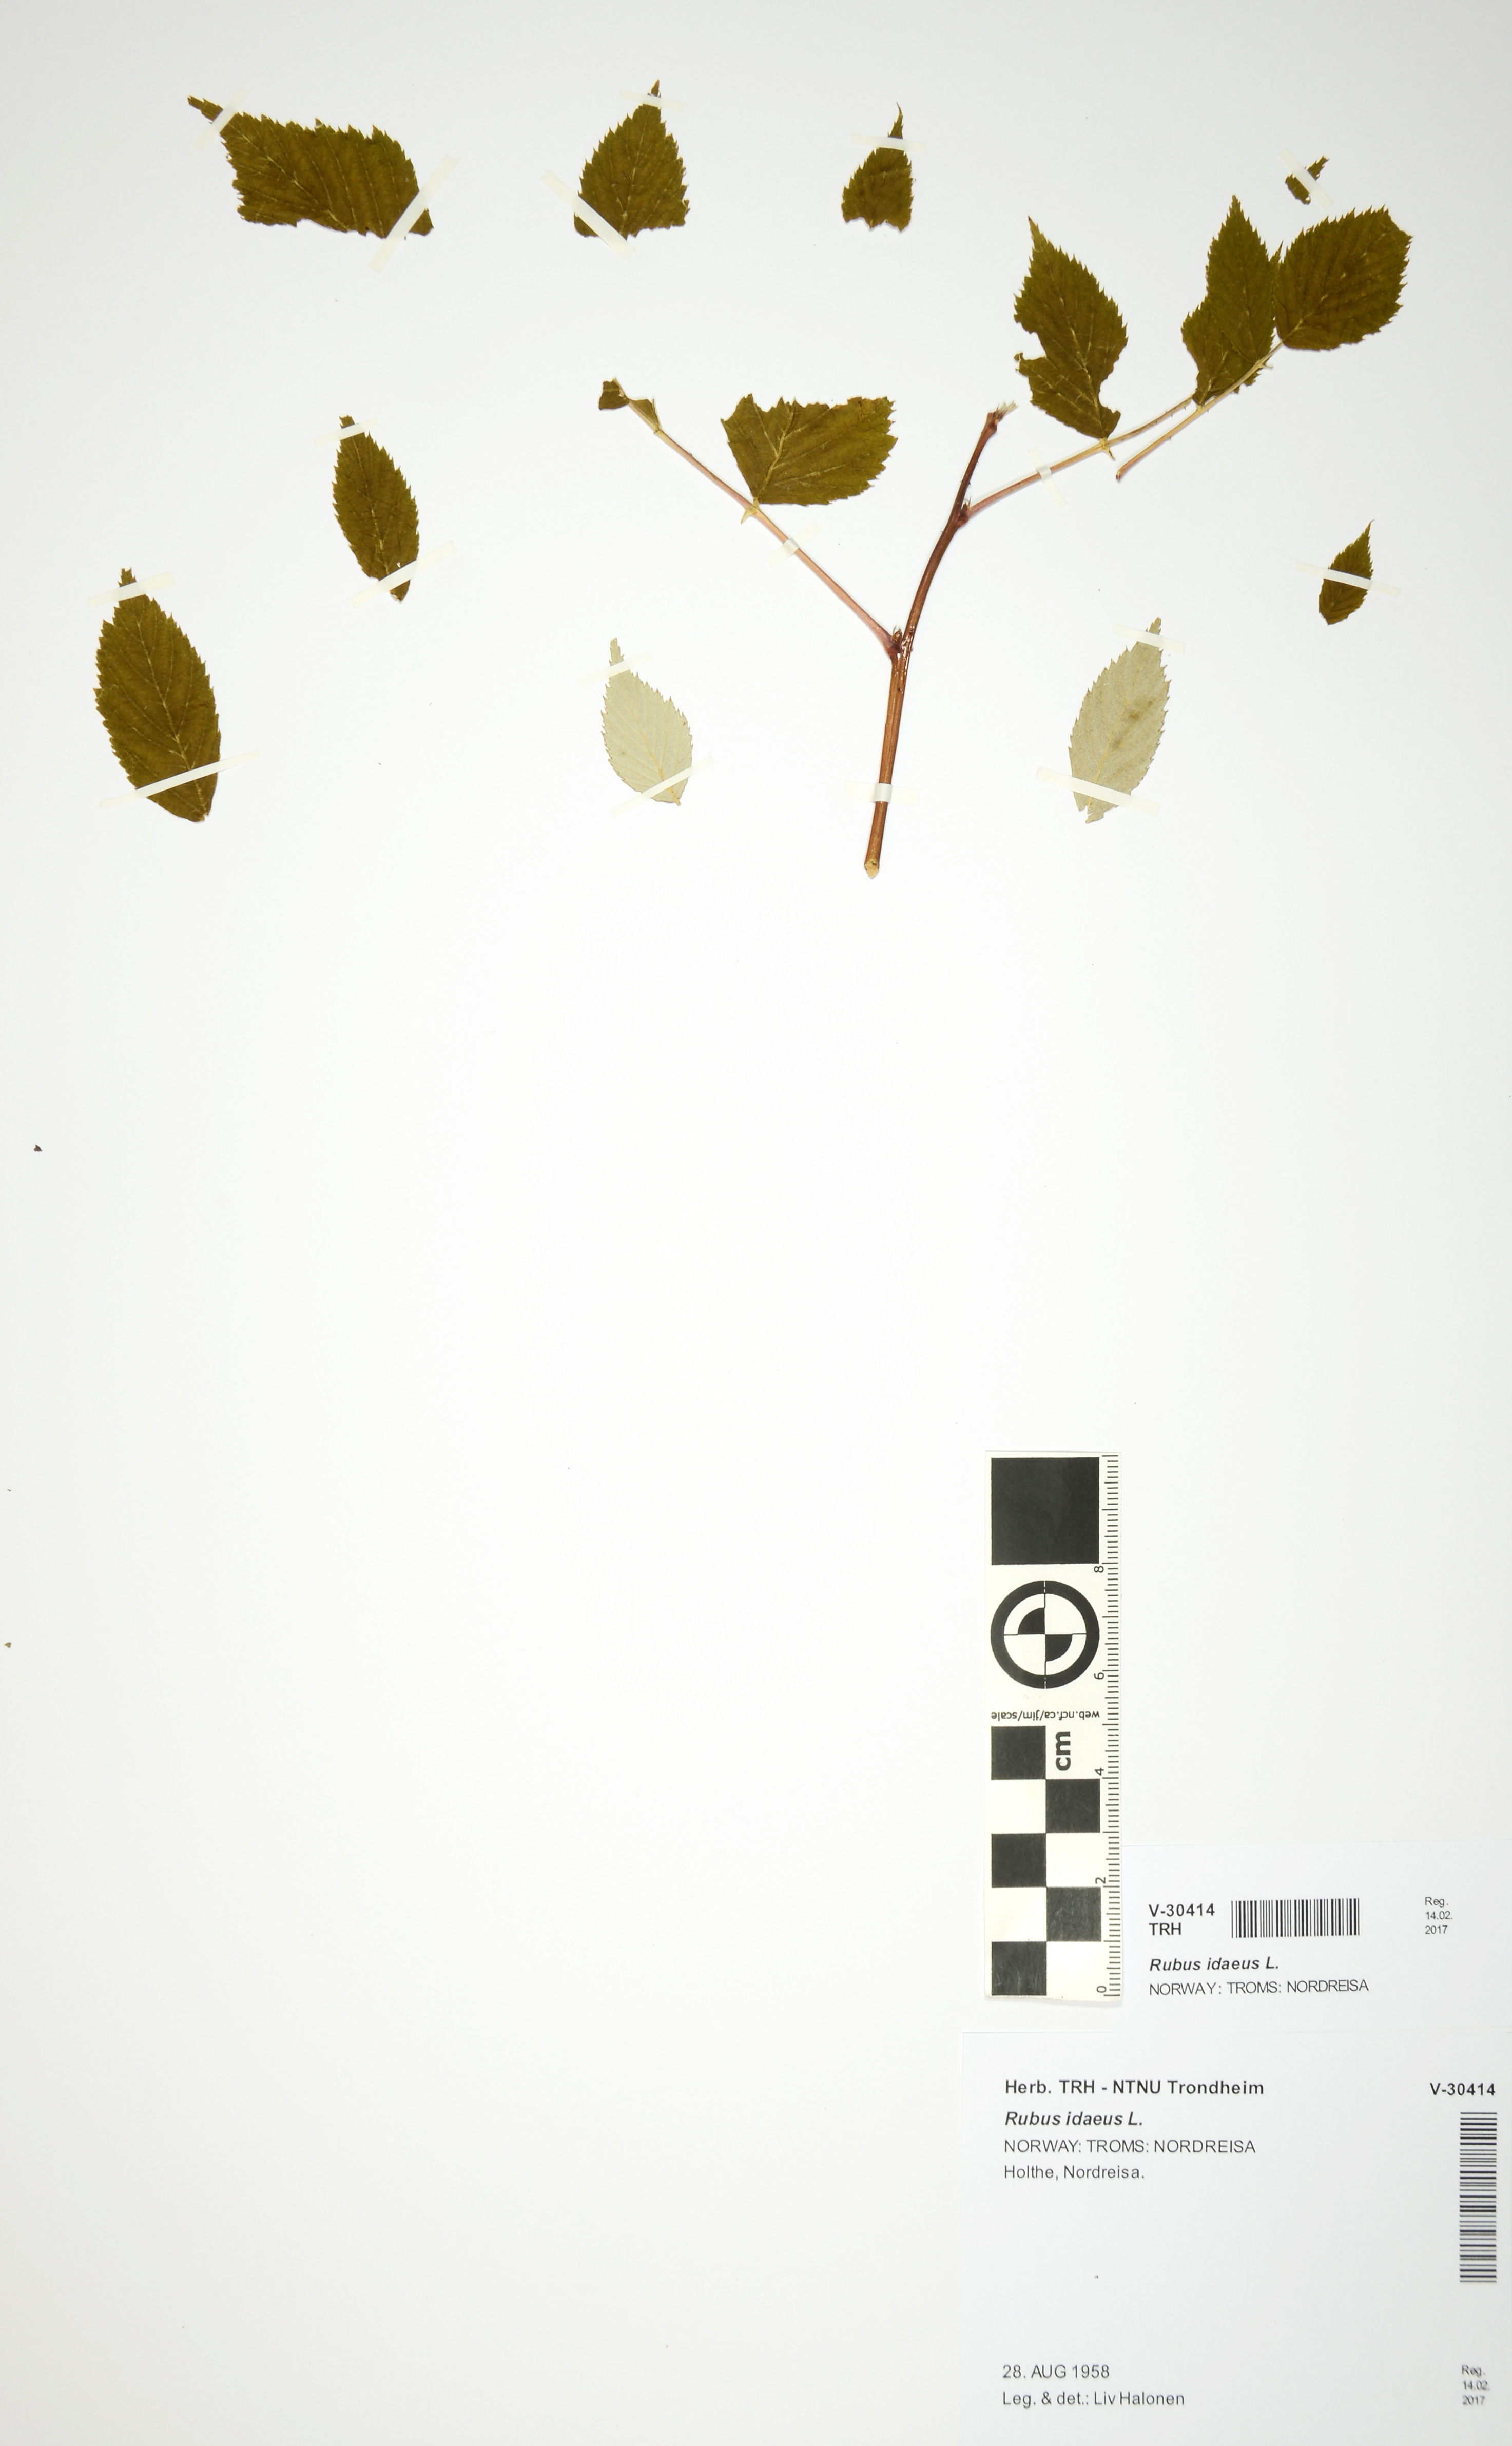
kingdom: Plantae
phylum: Tracheophyta
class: Magnoliopsida
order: Rosales
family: Rosaceae
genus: Rubus
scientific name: Rubus idaeus
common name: Raspberry
